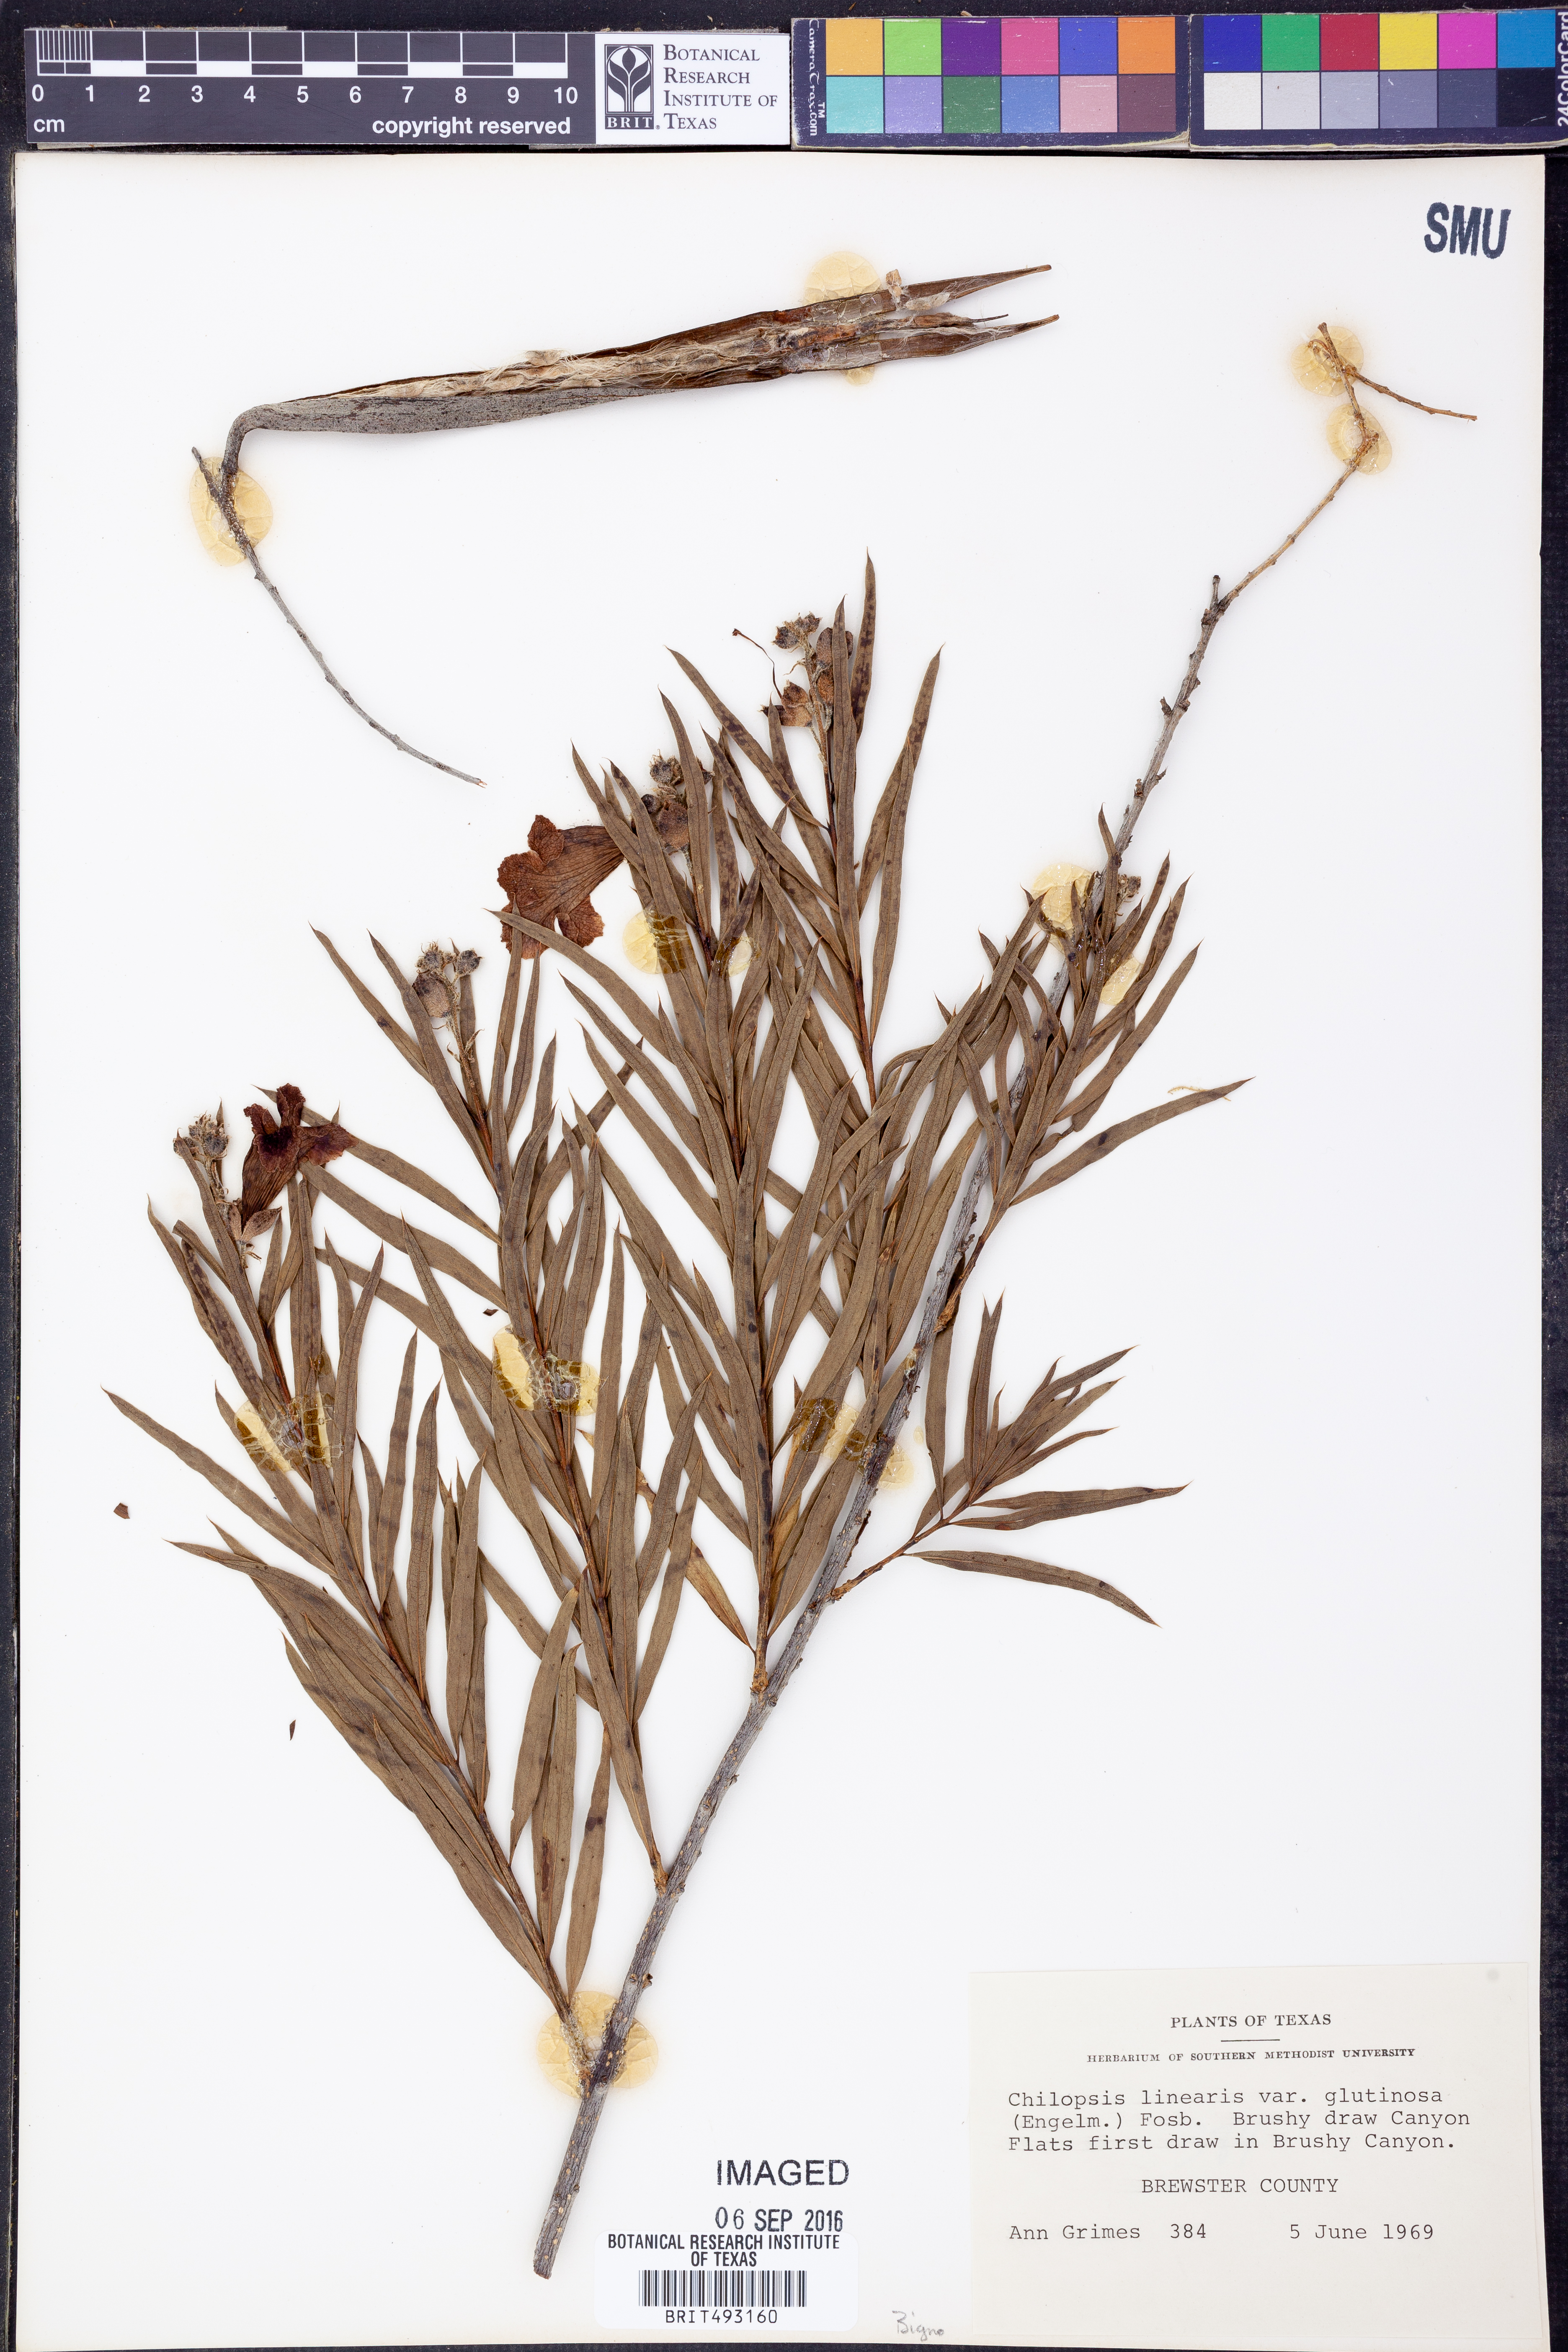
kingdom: Plantae
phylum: Tracheophyta
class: Magnoliopsida
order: Lamiales
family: Bignoniaceae
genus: Chilopsis
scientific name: Chilopsis linearis
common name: Desert-willow
